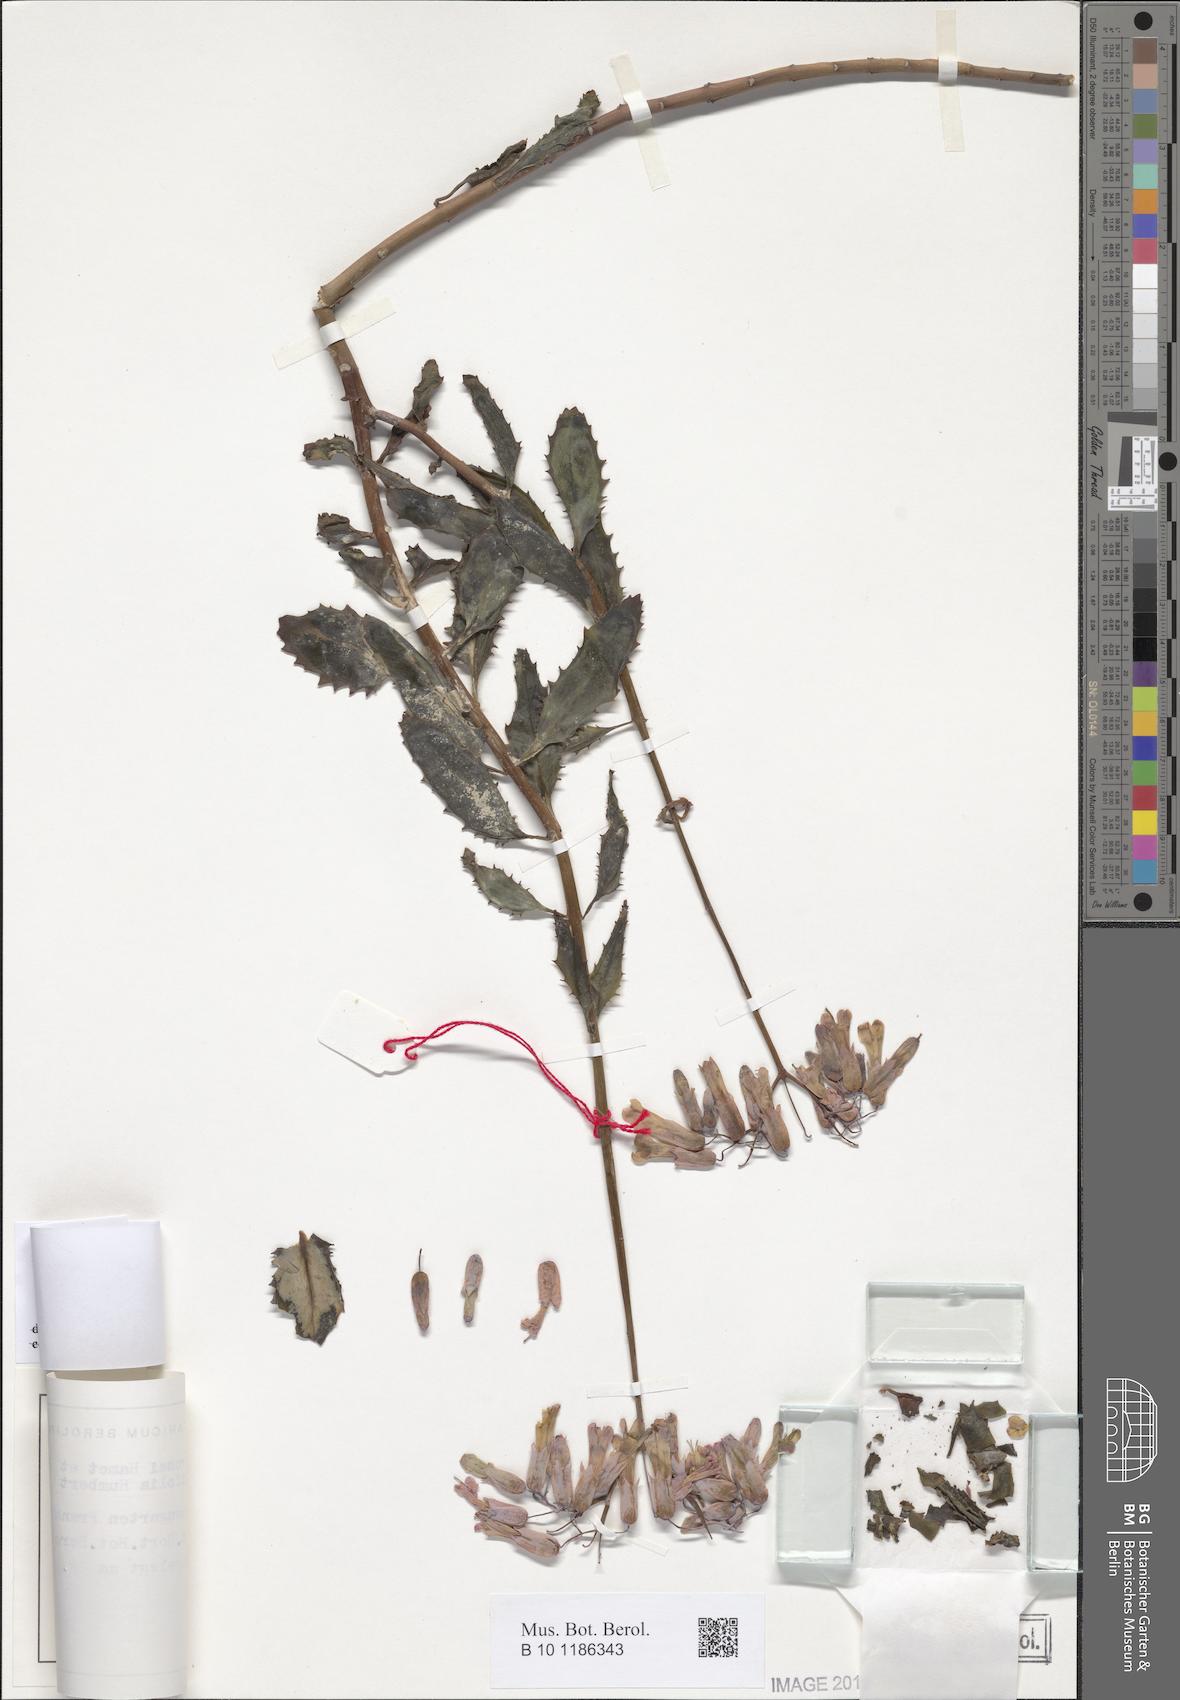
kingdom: Plantae
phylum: Tracheophyta
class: Magnoliopsida
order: Saxifragales
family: Crassulaceae
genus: Kalanchoe
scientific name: Kalanchoe rosei
